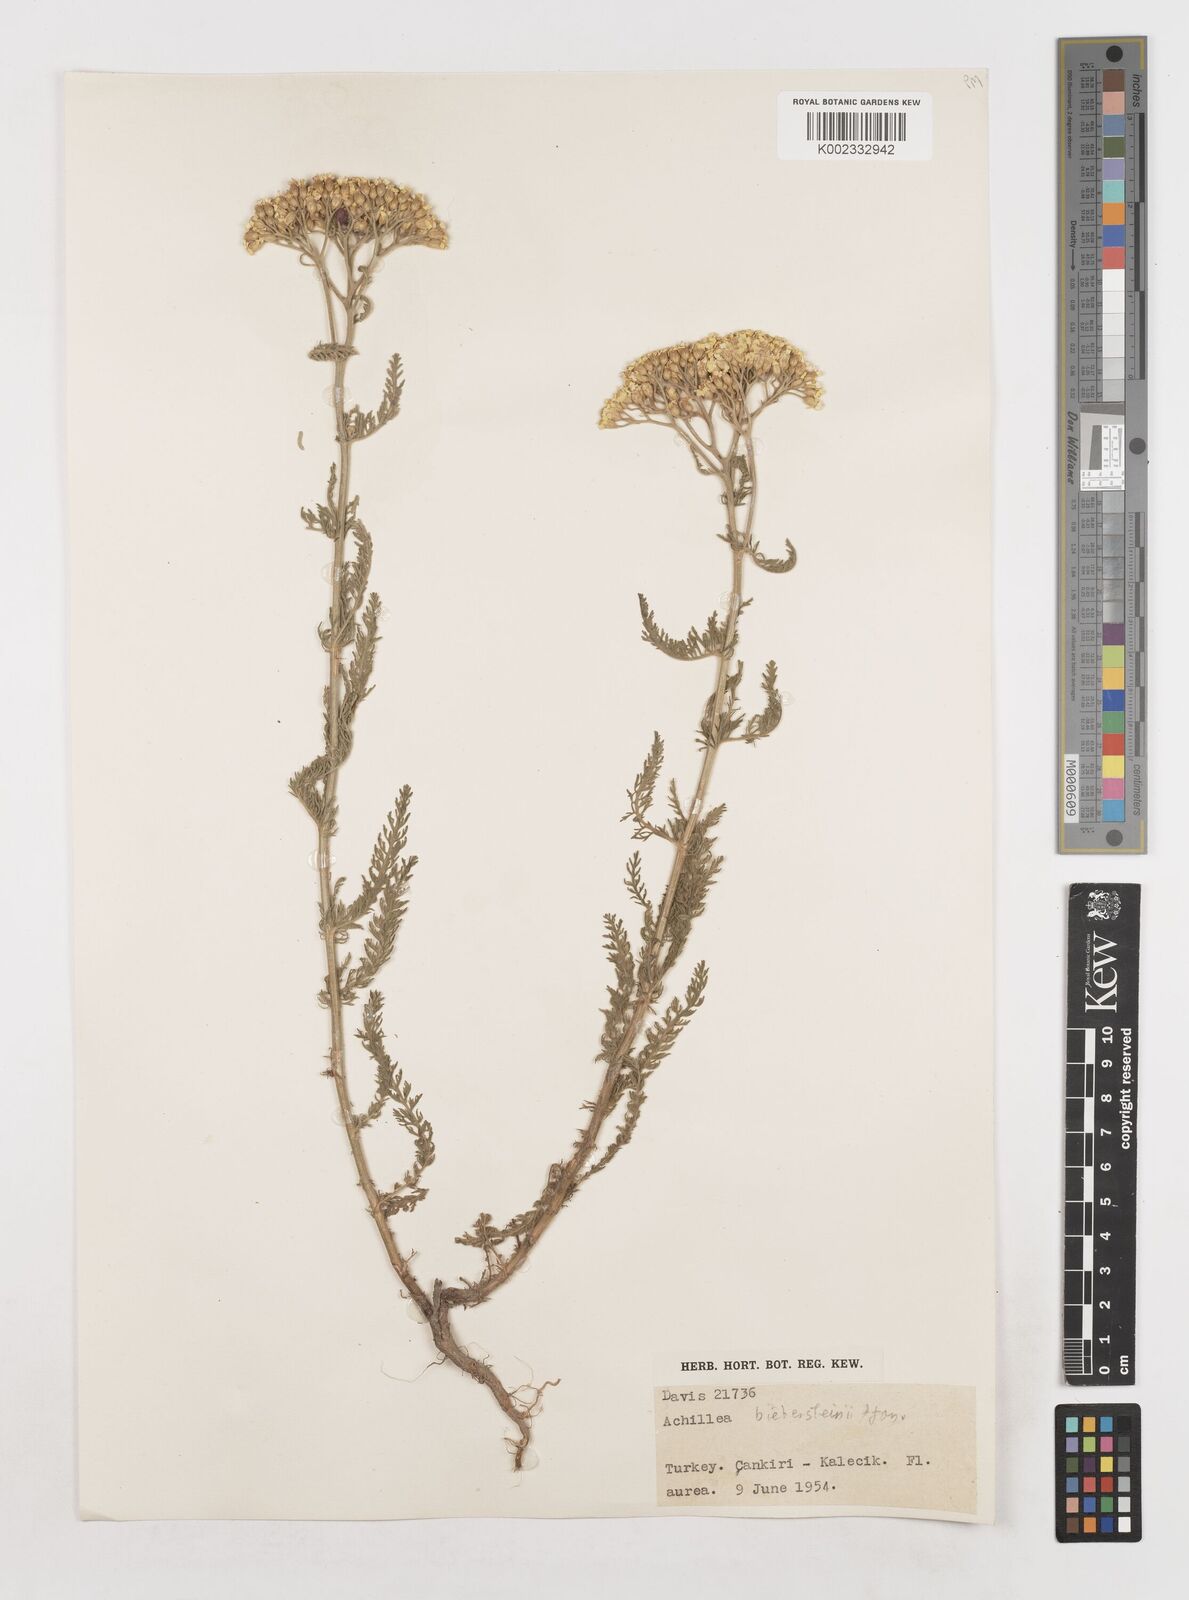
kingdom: Plantae
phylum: Tracheophyta
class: Magnoliopsida
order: Asterales
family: Asteraceae
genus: Achillea
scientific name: Achillea arabica
